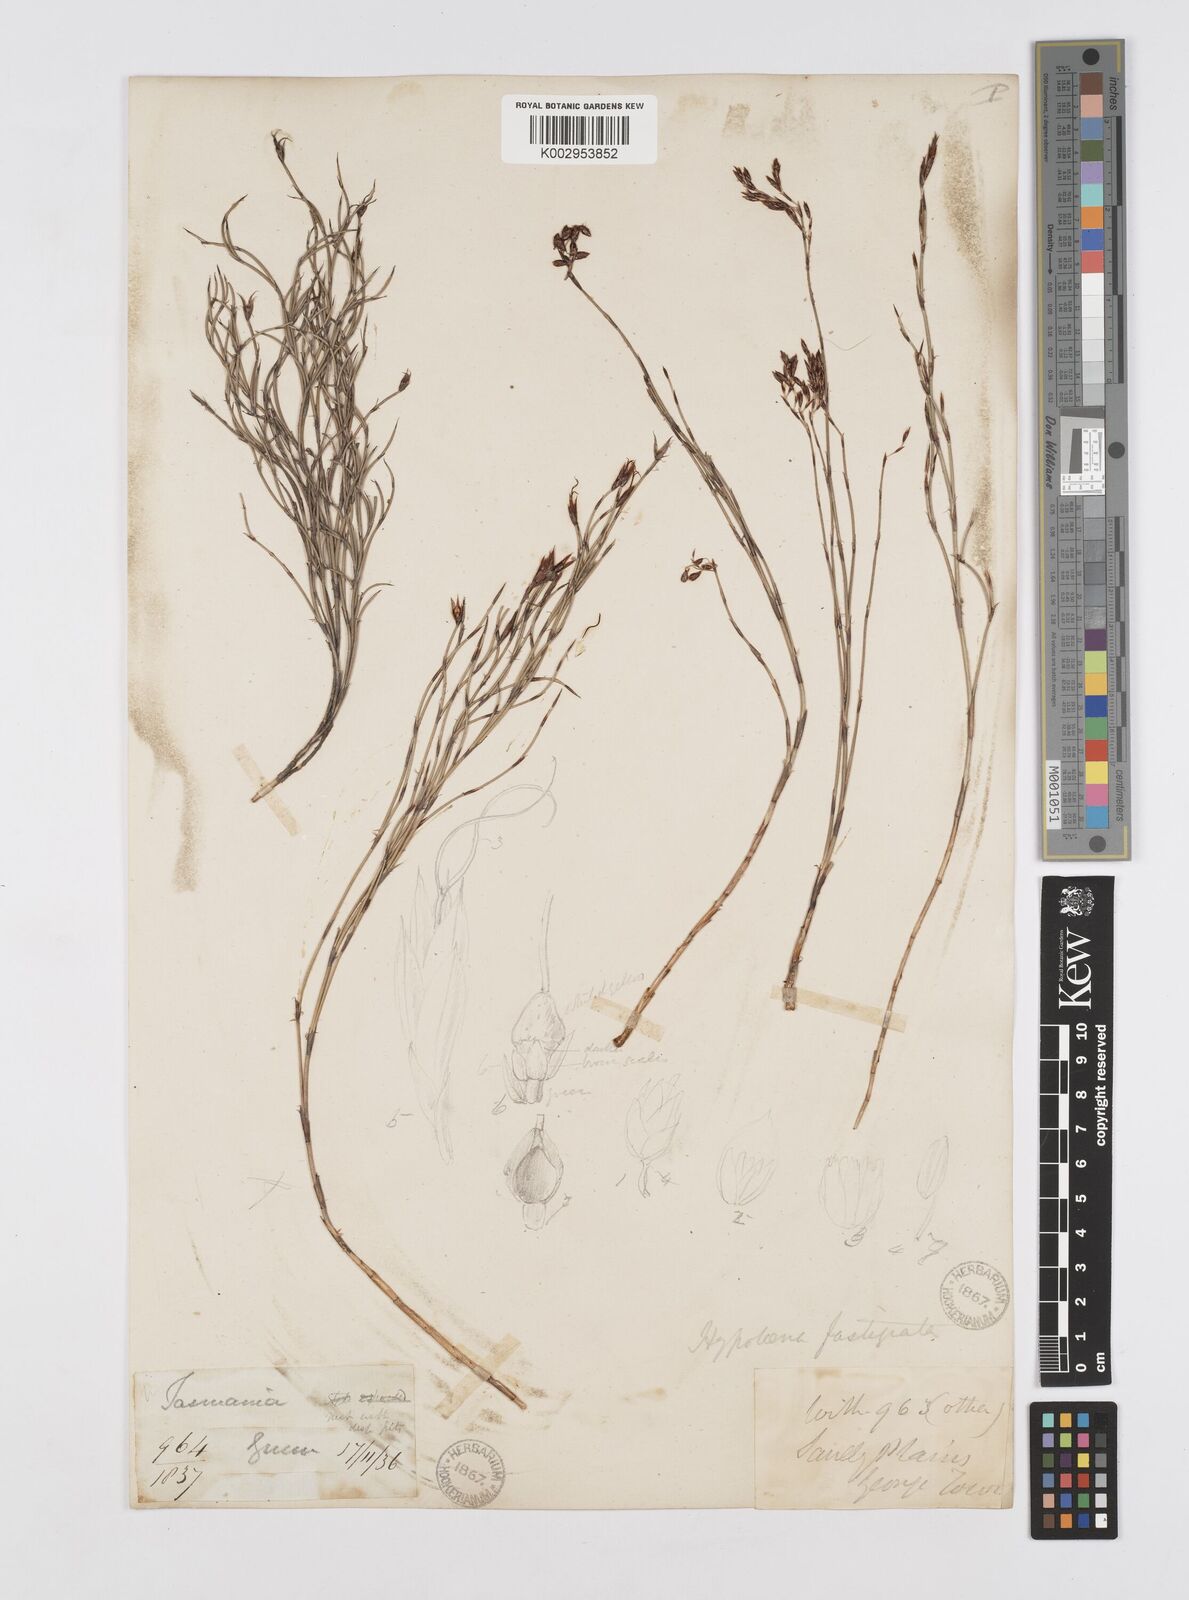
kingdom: Plantae
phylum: Tracheophyta
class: Liliopsida
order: Poales
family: Restionaceae
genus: Hypolaena
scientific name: Hypolaena fastigiata
